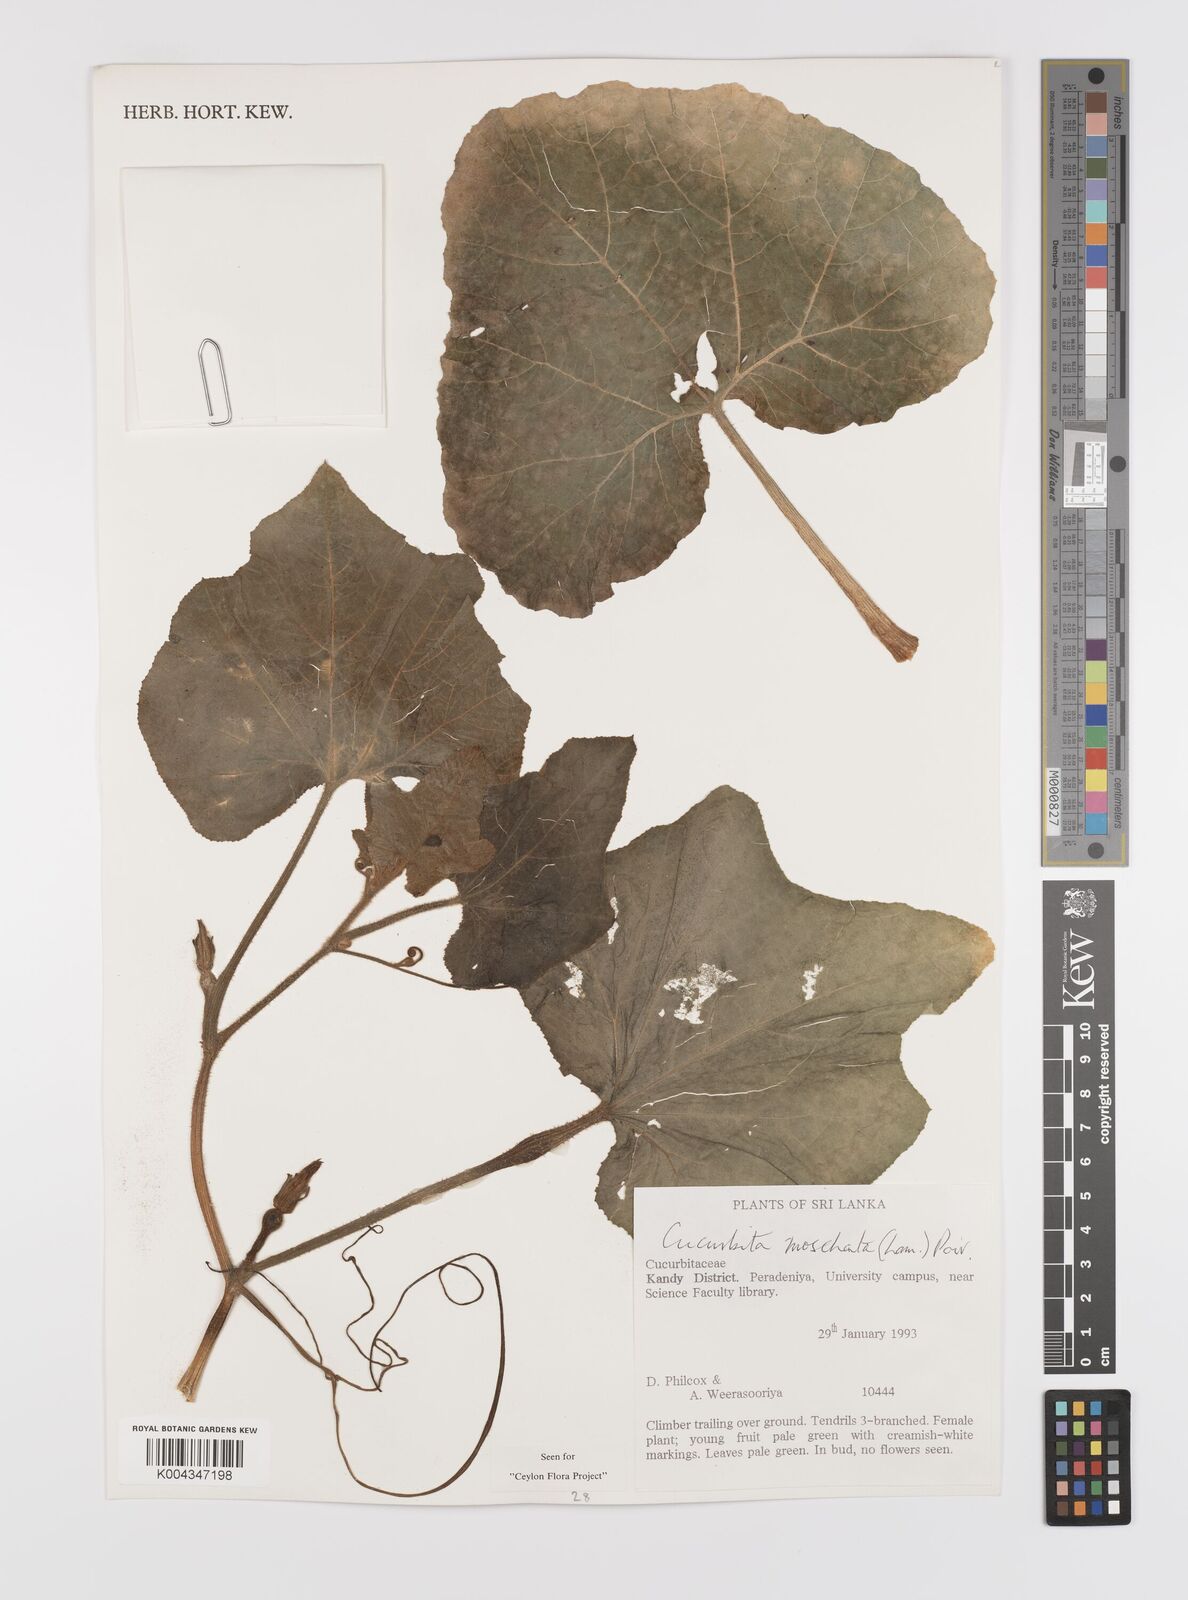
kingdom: Plantae
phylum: Tracheophyta
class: Magnoliopsida
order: Cucurbitales
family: Cucurbitaceae
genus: Cucurbita
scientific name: Cucurbita moschata
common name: Squash / pumpkin
